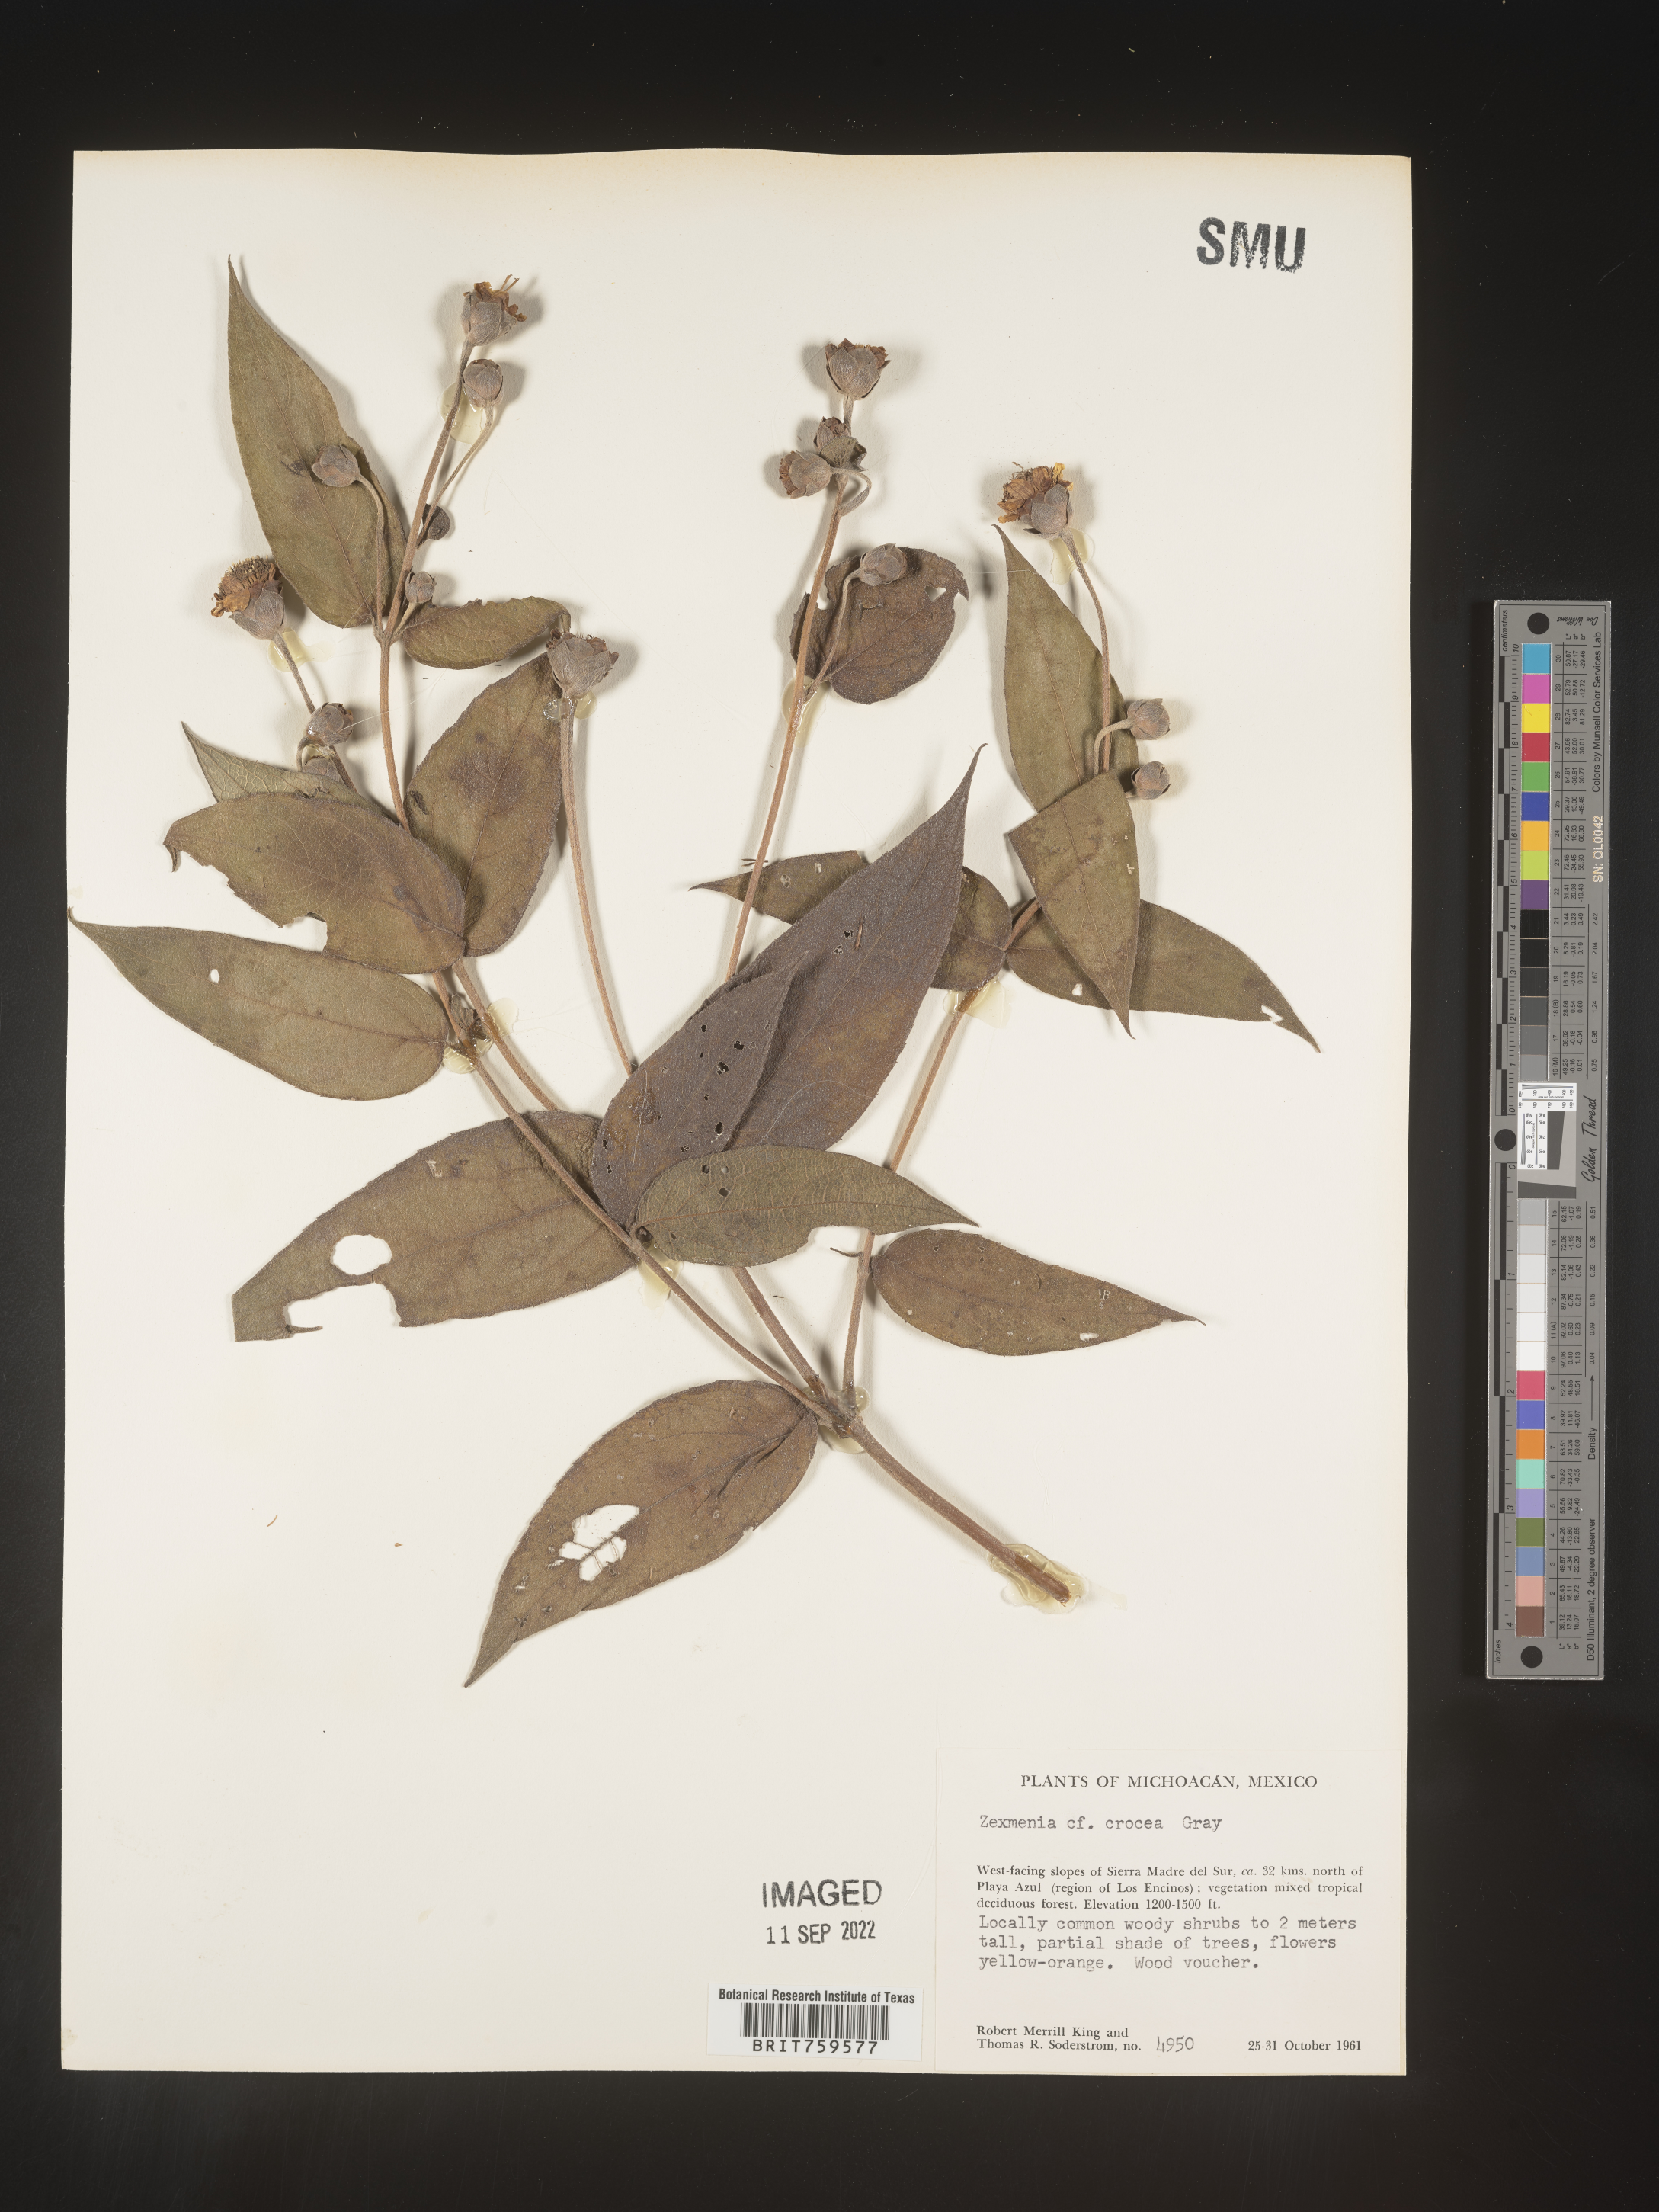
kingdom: Plantae
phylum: Tracheophyta
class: Magnoliopsida
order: Asterales
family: Asteraceae
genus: Zexmenia
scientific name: Zexmenia
